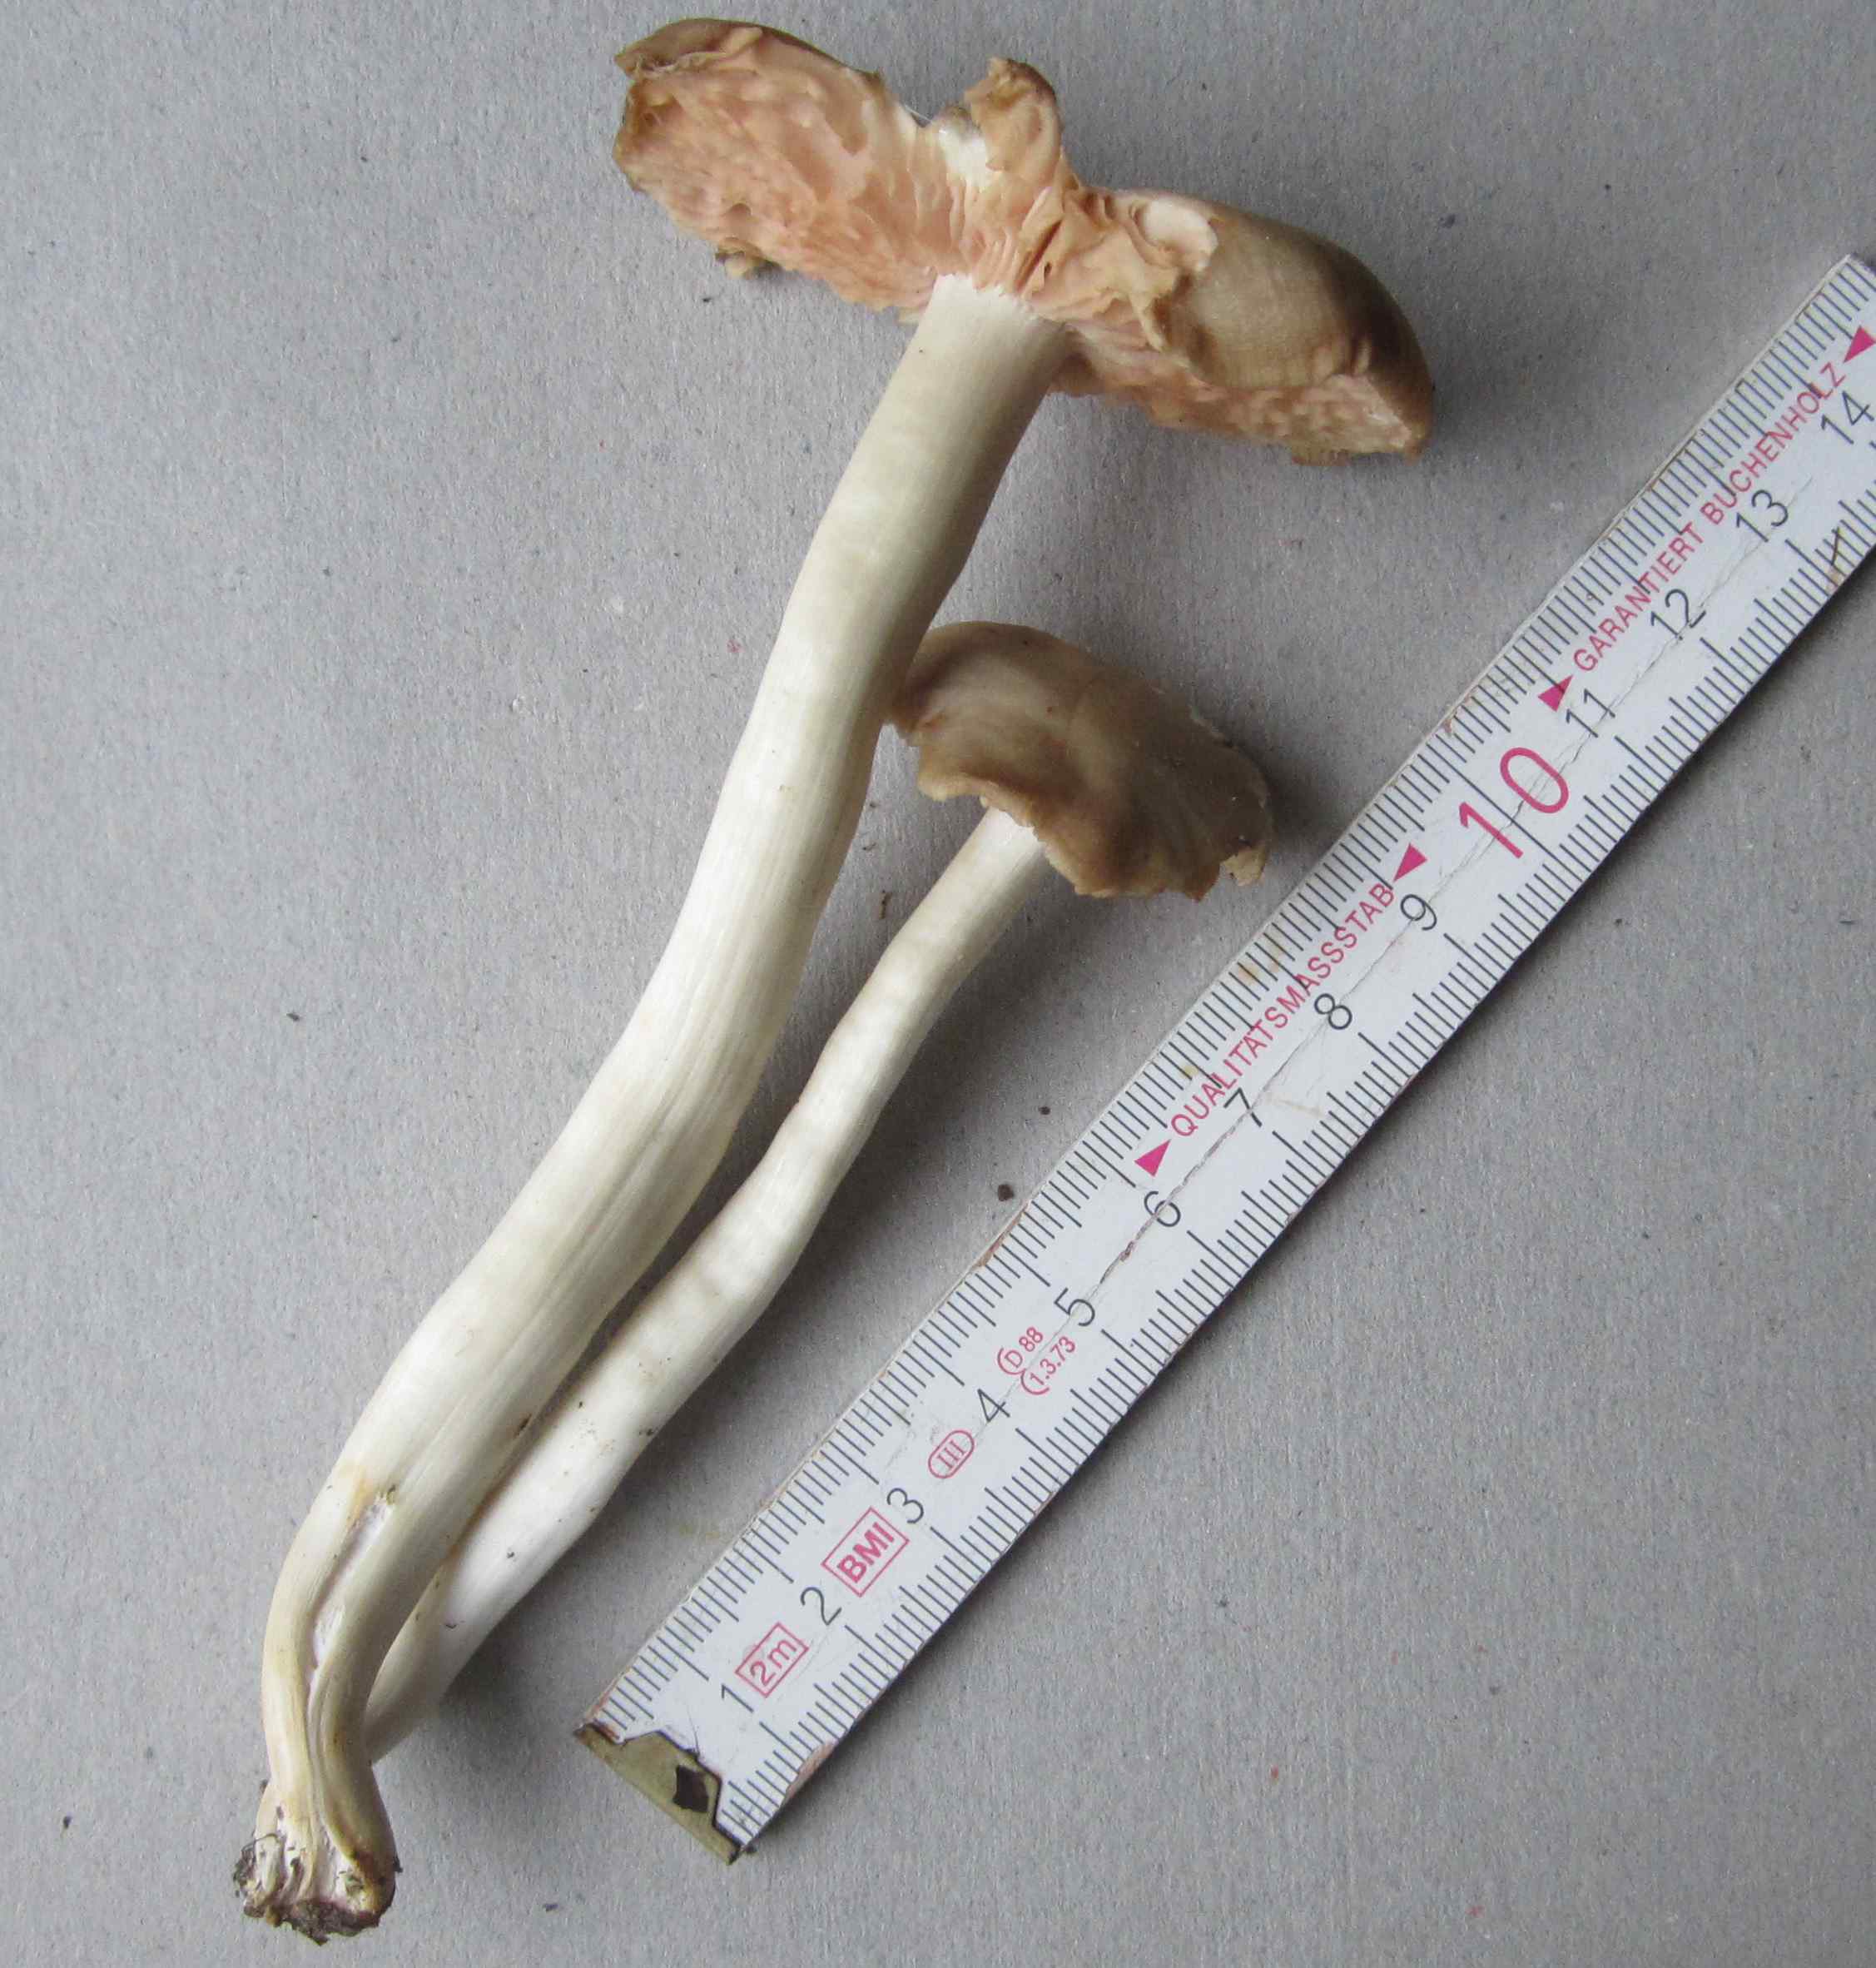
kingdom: Fungi
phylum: Basidiomycota
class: Agaricomycetes
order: Agaricales
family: Entolomataceae
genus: Entoloma
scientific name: Entoloma rhodopolium
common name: skov-rødblad
